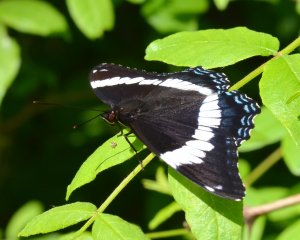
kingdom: Animalia
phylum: Arthropoda
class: Insecta
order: Lepidoptera
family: Nymphalidae
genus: Limenitis
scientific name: Limenitis arthemis
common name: Red-spotted Admiral
